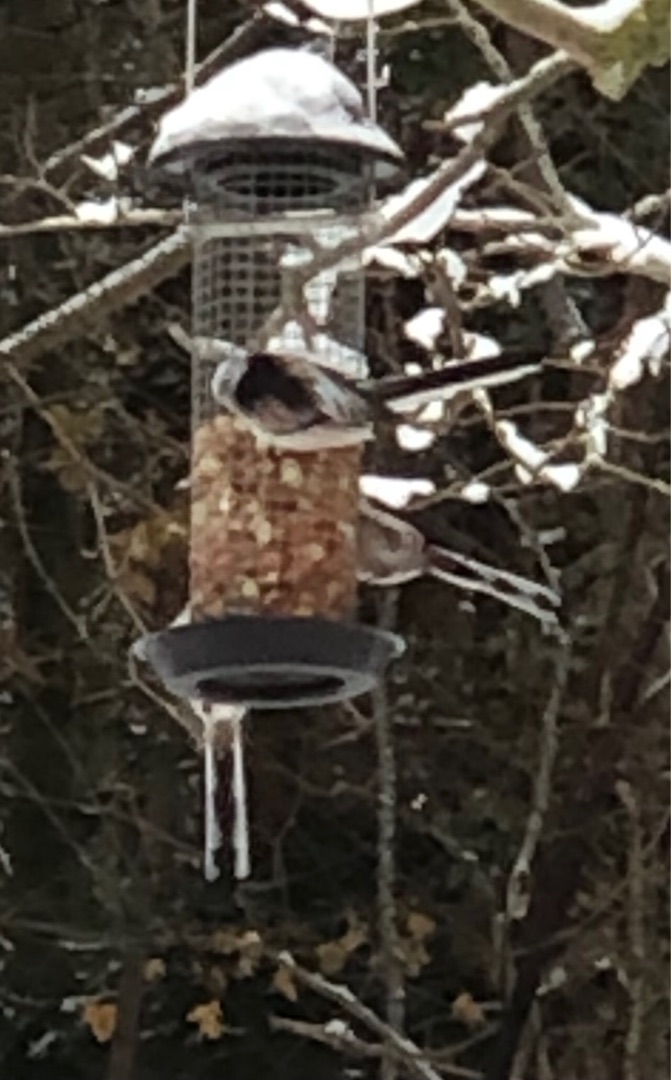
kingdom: Animalia
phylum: Chordata
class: Aves
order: Passeriformes
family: Aegithalidae
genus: Aegithalos
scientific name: Aegithalos caudatus
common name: Halemejse
